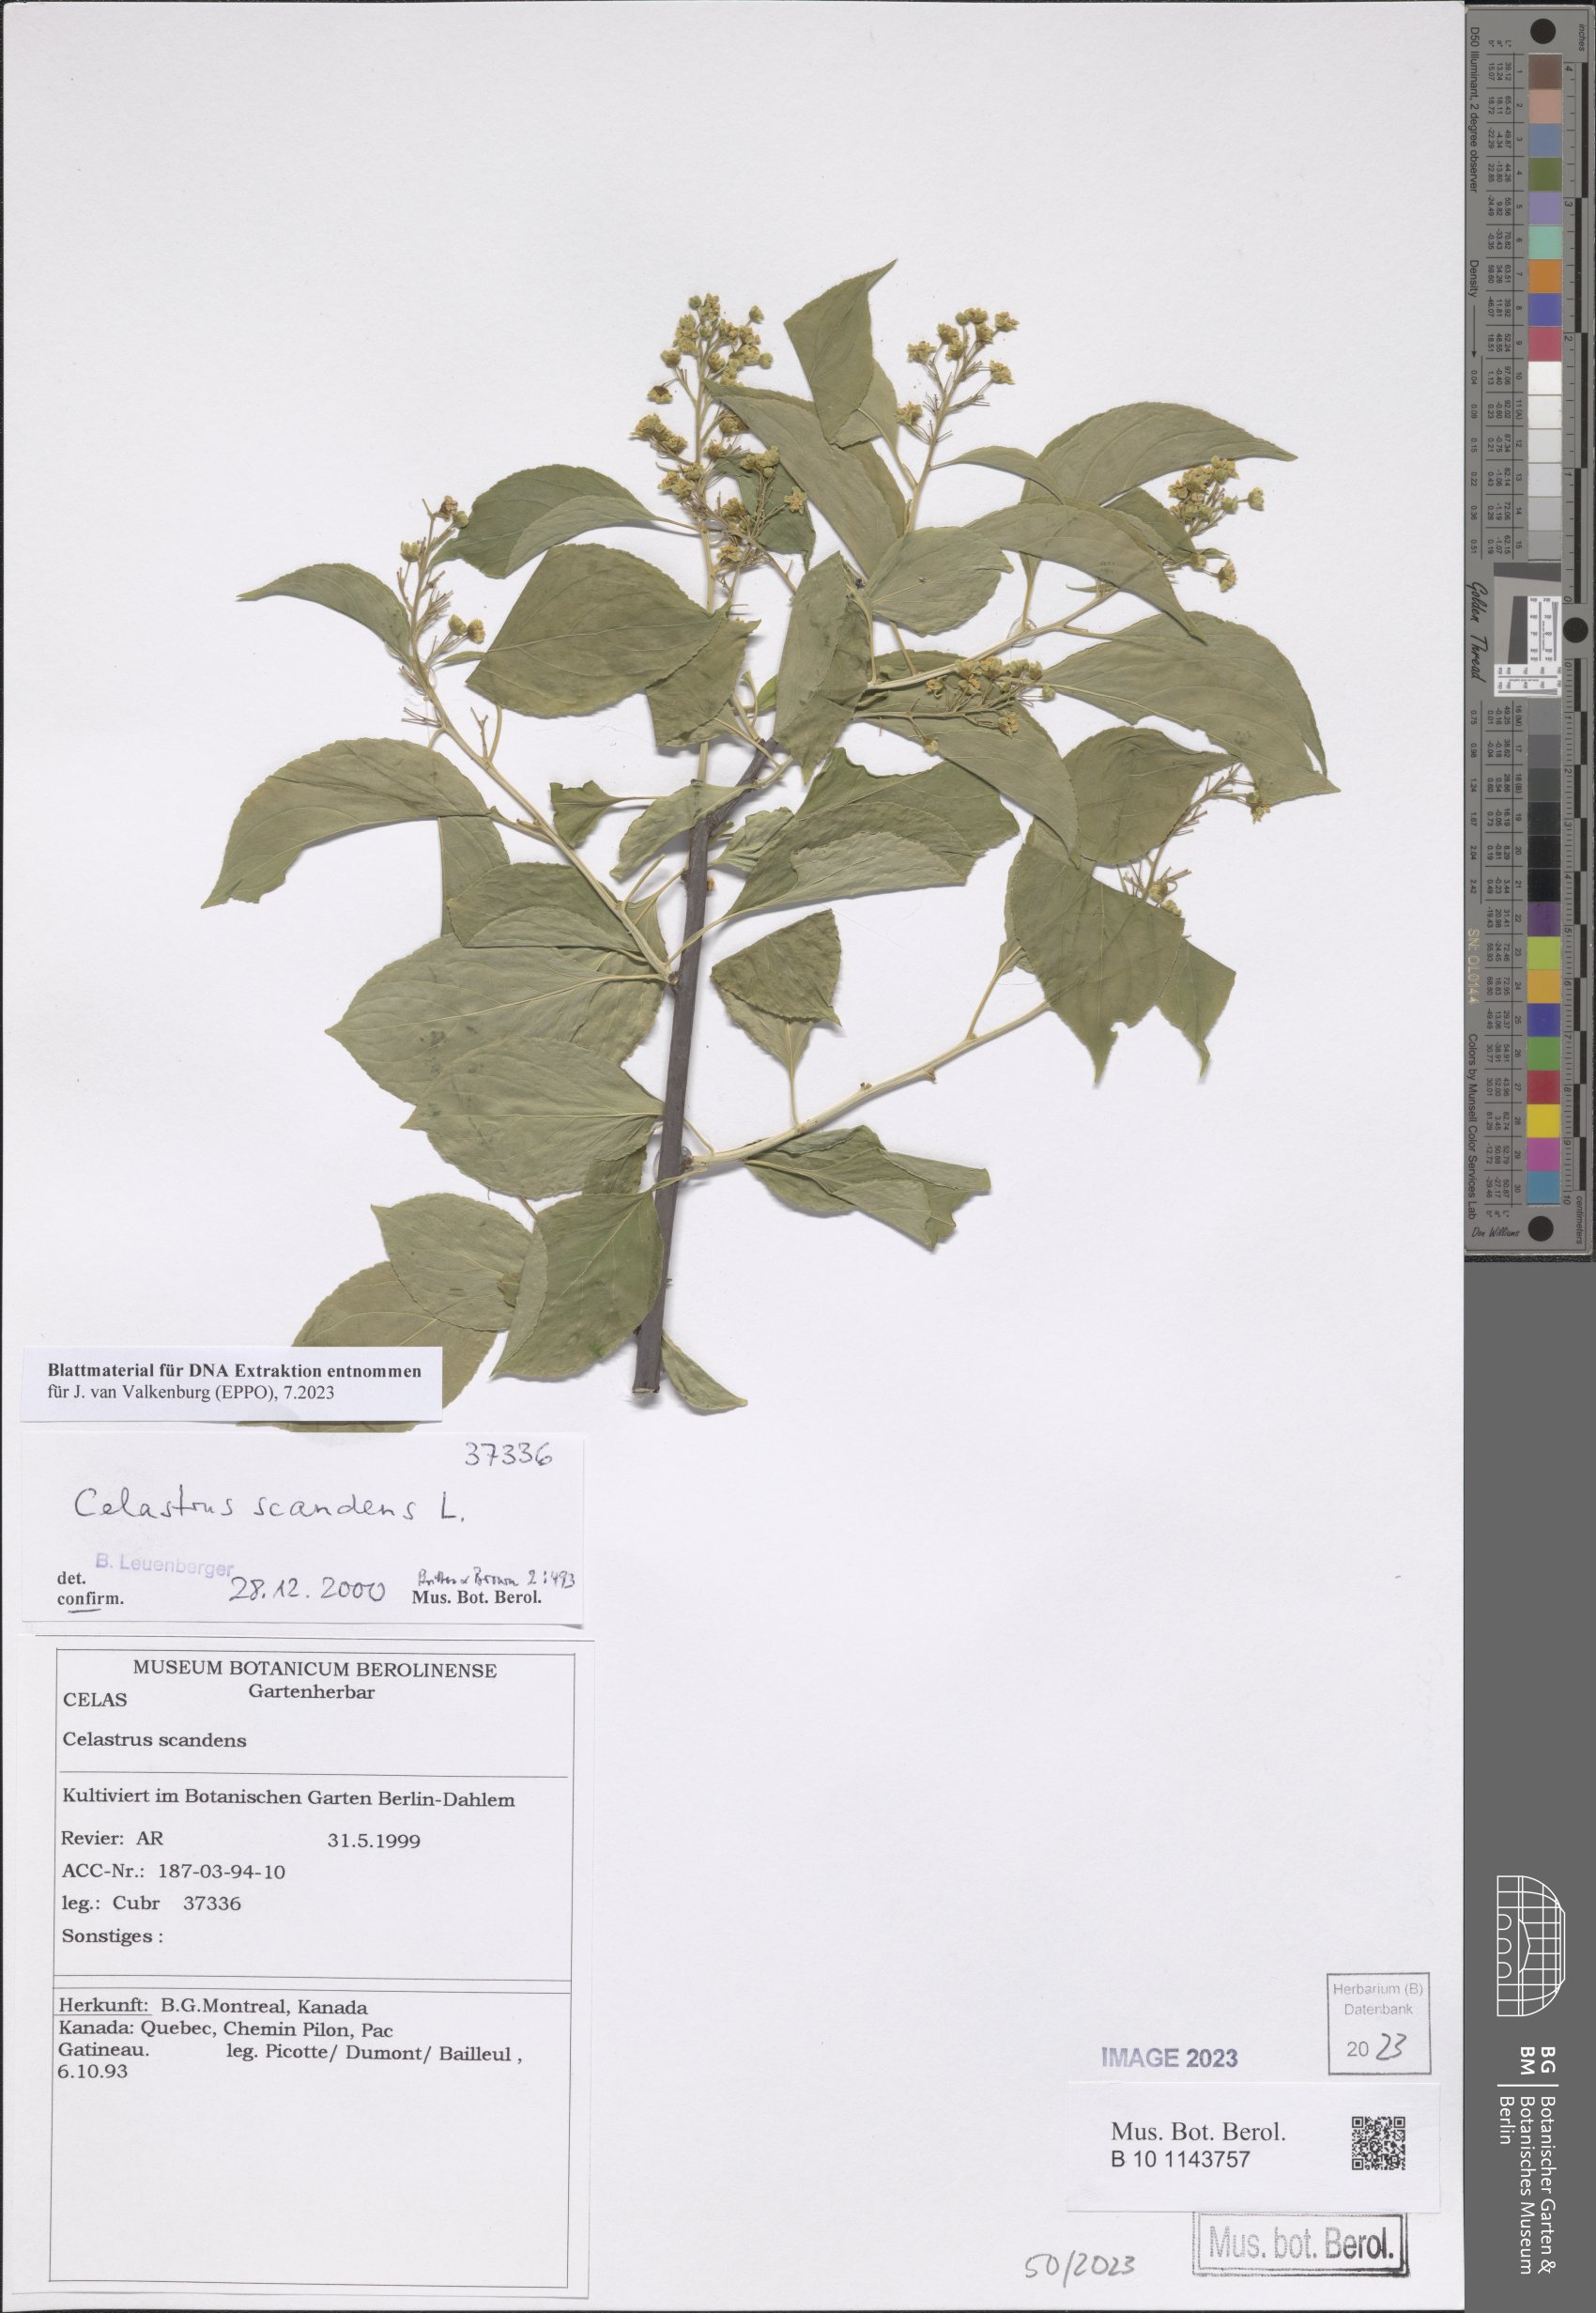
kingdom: Plantae
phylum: Tracheophyta
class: Magnoliopsida
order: Celastrales
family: Celastraceae
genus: Celastrus
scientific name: Celastrus scandens
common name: American bittersweet
